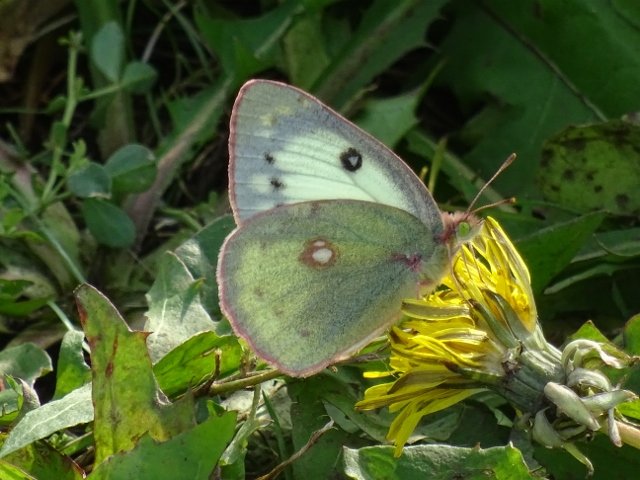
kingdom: Animalia
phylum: Arthropoda
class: Insecta
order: Lepidoptera
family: Pieridae
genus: Colias
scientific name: Colias philodice
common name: Clouded Sulphur
